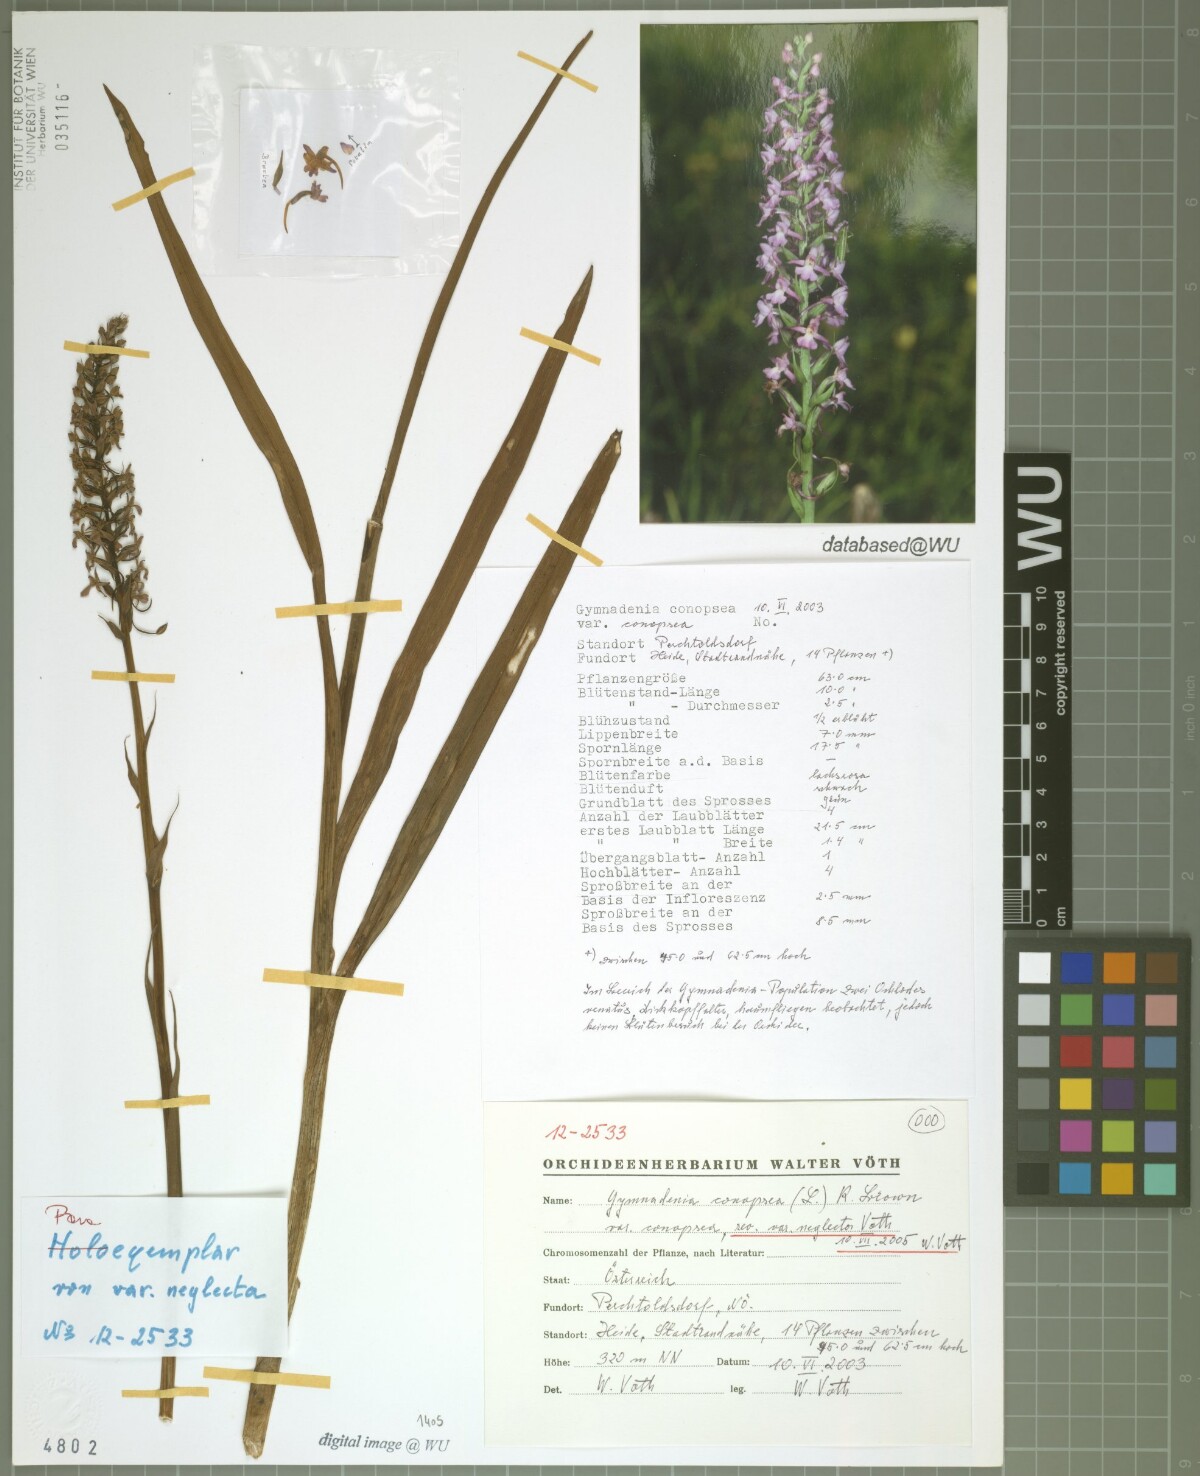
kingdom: Plantae
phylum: Tracheophyta
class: Liliopsida
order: Asparagales
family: Orchidaceae
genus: Gymnadenia
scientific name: Gymnadenia conopsea
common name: Fragrant orchid
